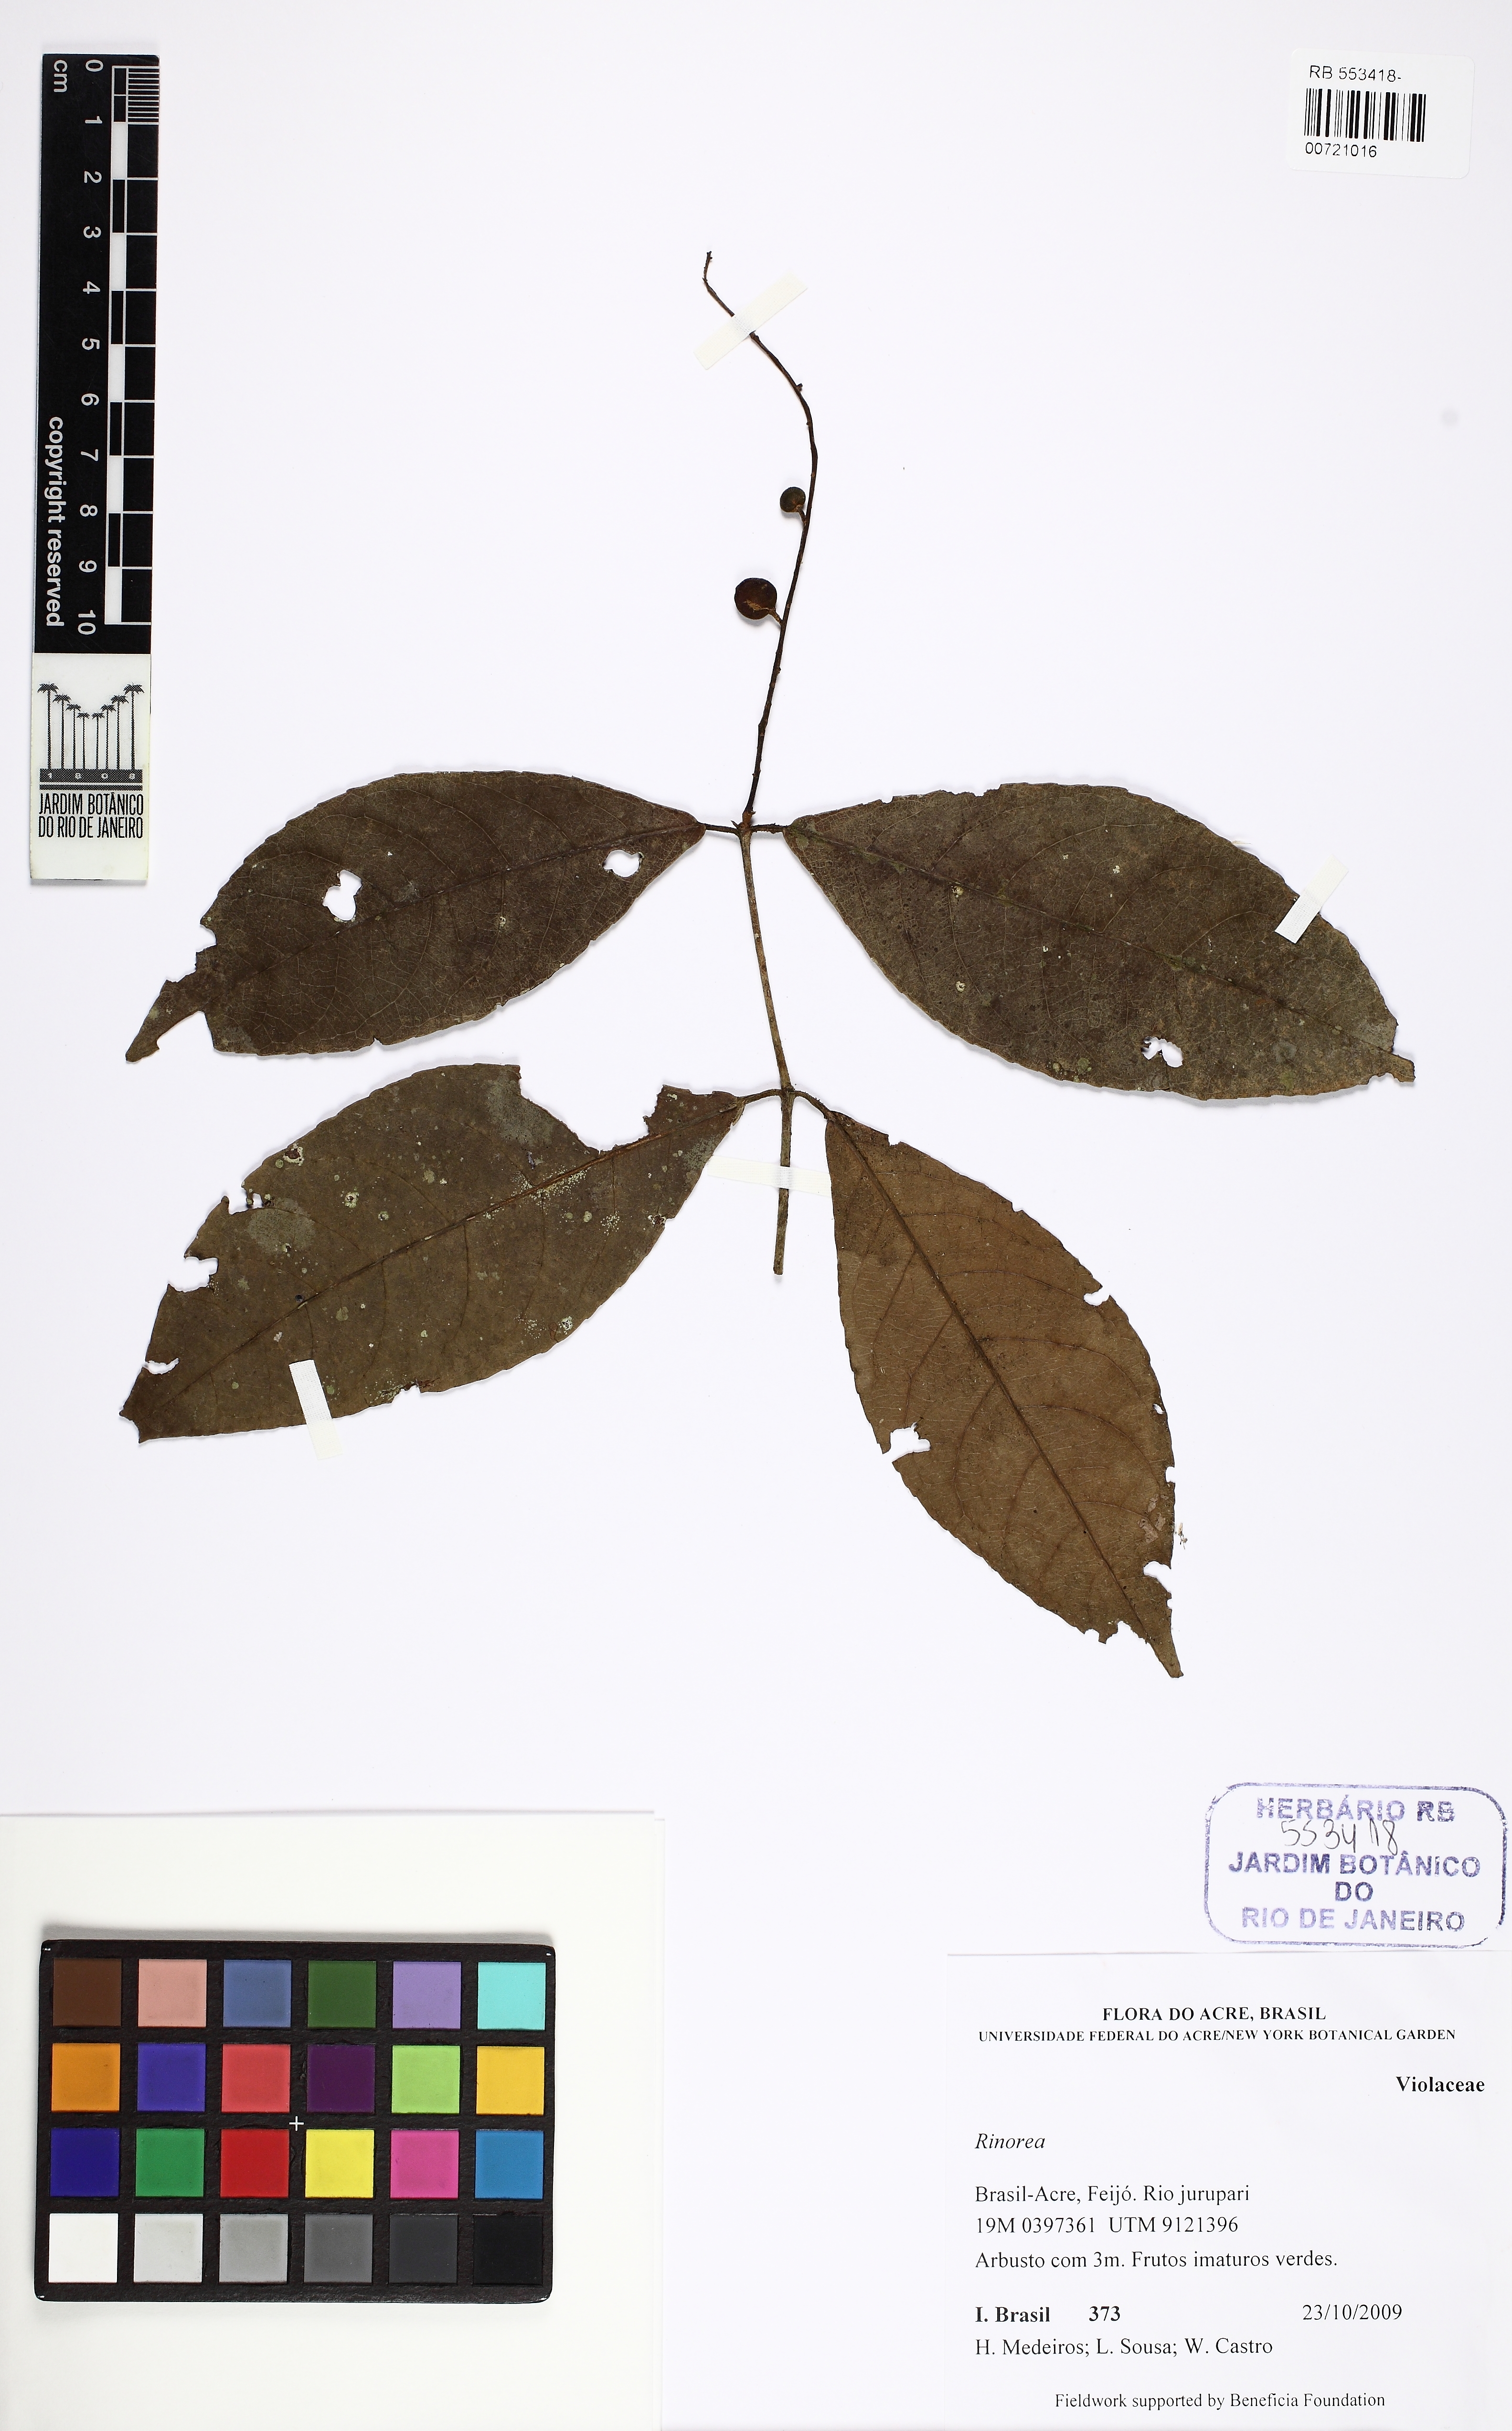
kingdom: Plantae
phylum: Tracheophyta
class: Magnoliopsida
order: Malpighiales
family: Violaceae
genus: Rinorea
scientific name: Rinorea
